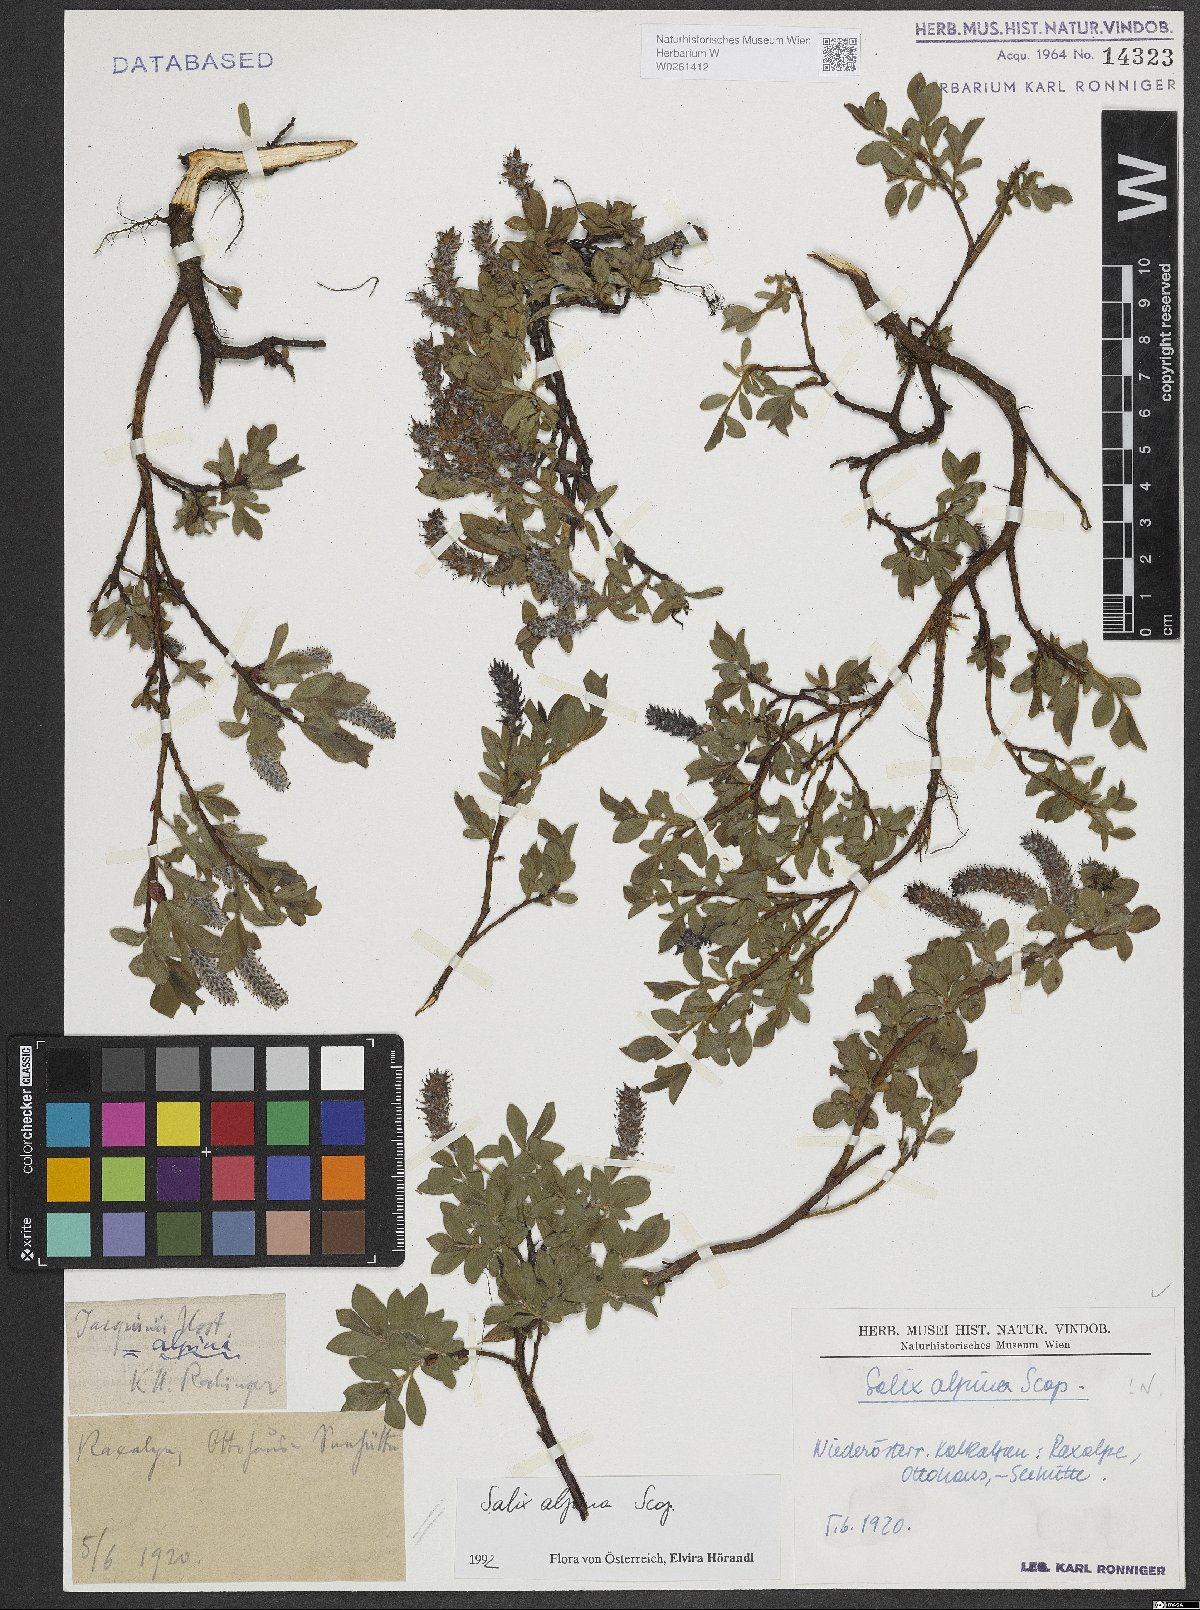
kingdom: Plantae
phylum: Tracheophyta
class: Magnoliopsida
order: Malpighiales
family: Salicaceae
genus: Salix
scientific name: Salix alpina
